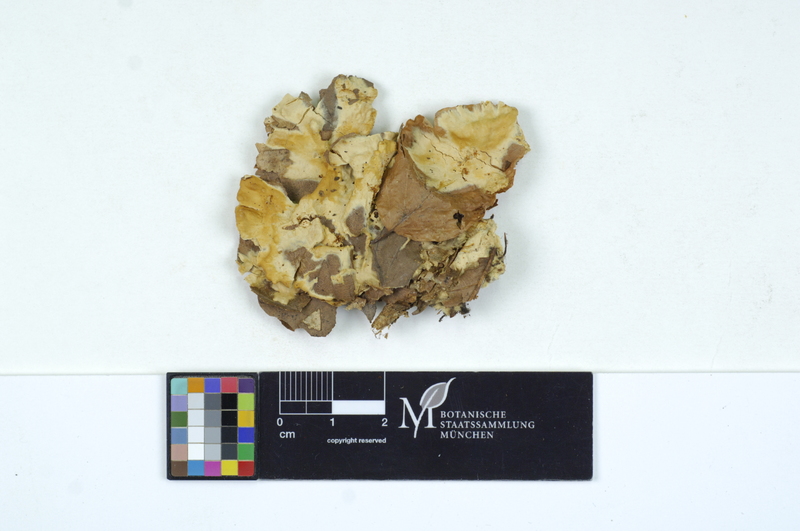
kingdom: Fungi
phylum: Basidiomycota
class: Agaricomycetes
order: Sebacinales
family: Sebacinaceae
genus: Sebacina
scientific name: Sebacina incrustans
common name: Enveloping crust
